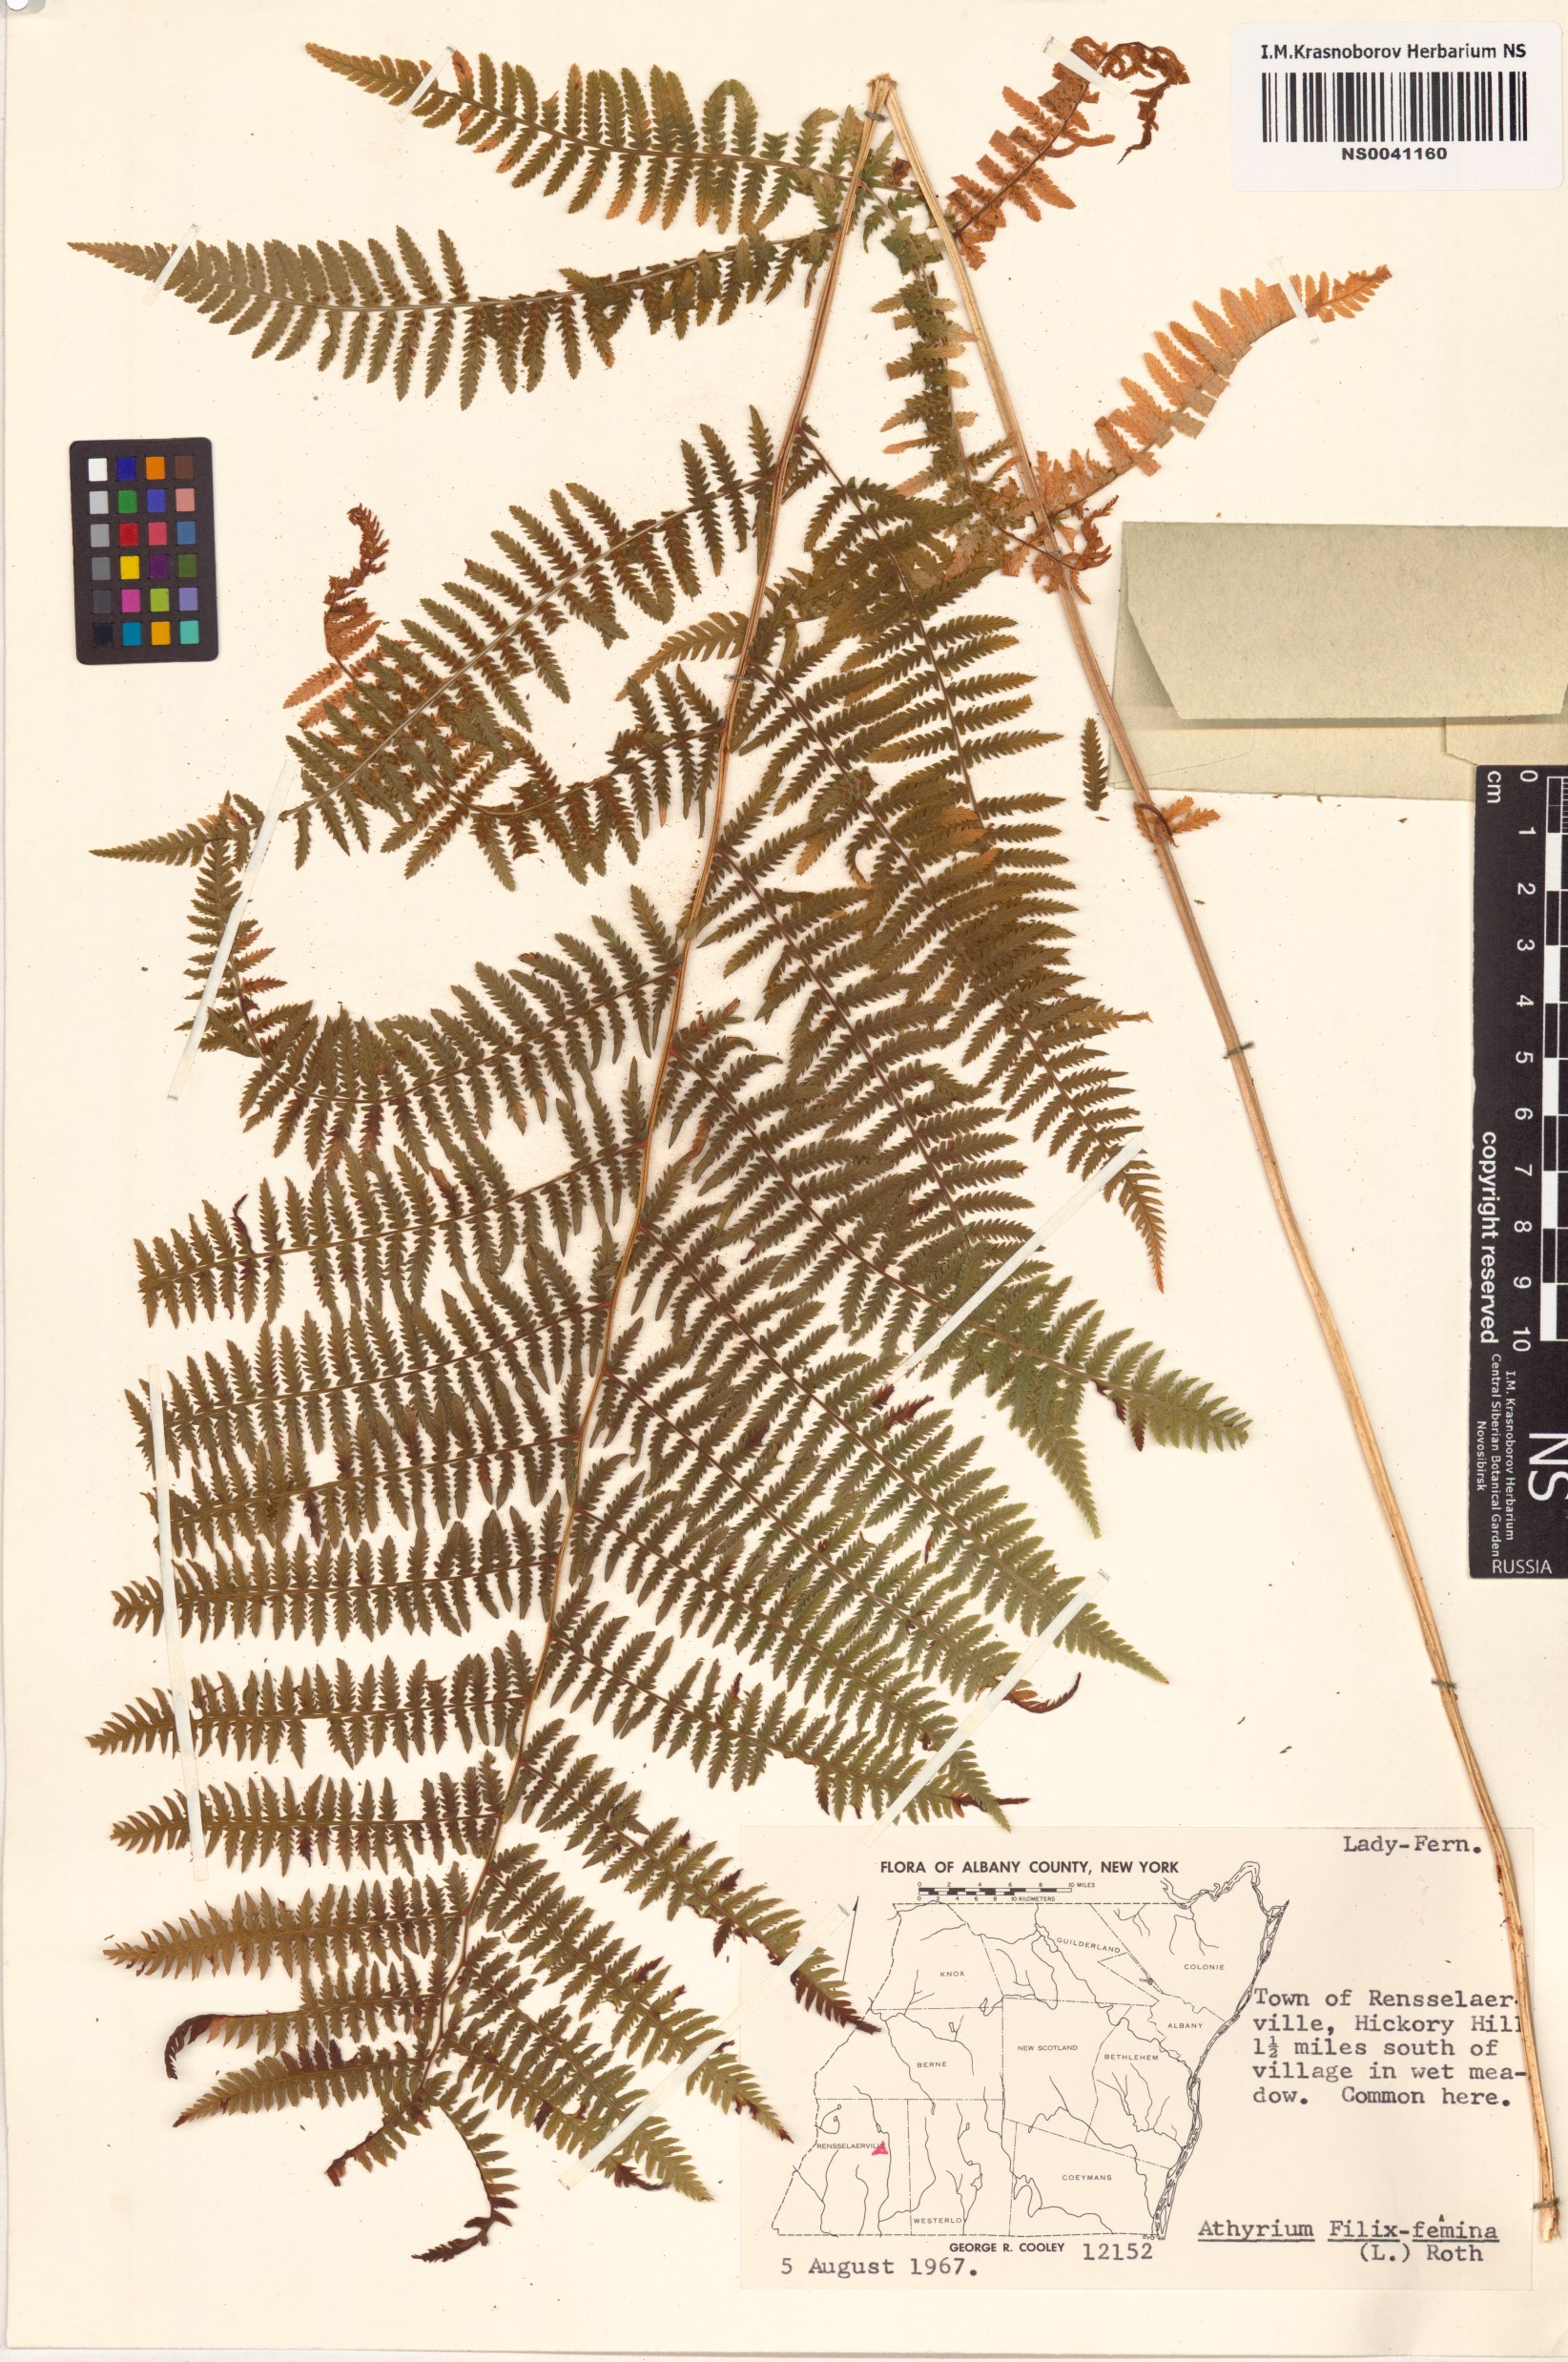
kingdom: Plantae
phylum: Tracheophyta
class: Polypodiopsida
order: Polypodiales
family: Athyriaceae
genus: Athyrium
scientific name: Athyrium filix-femina
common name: Lady fern
